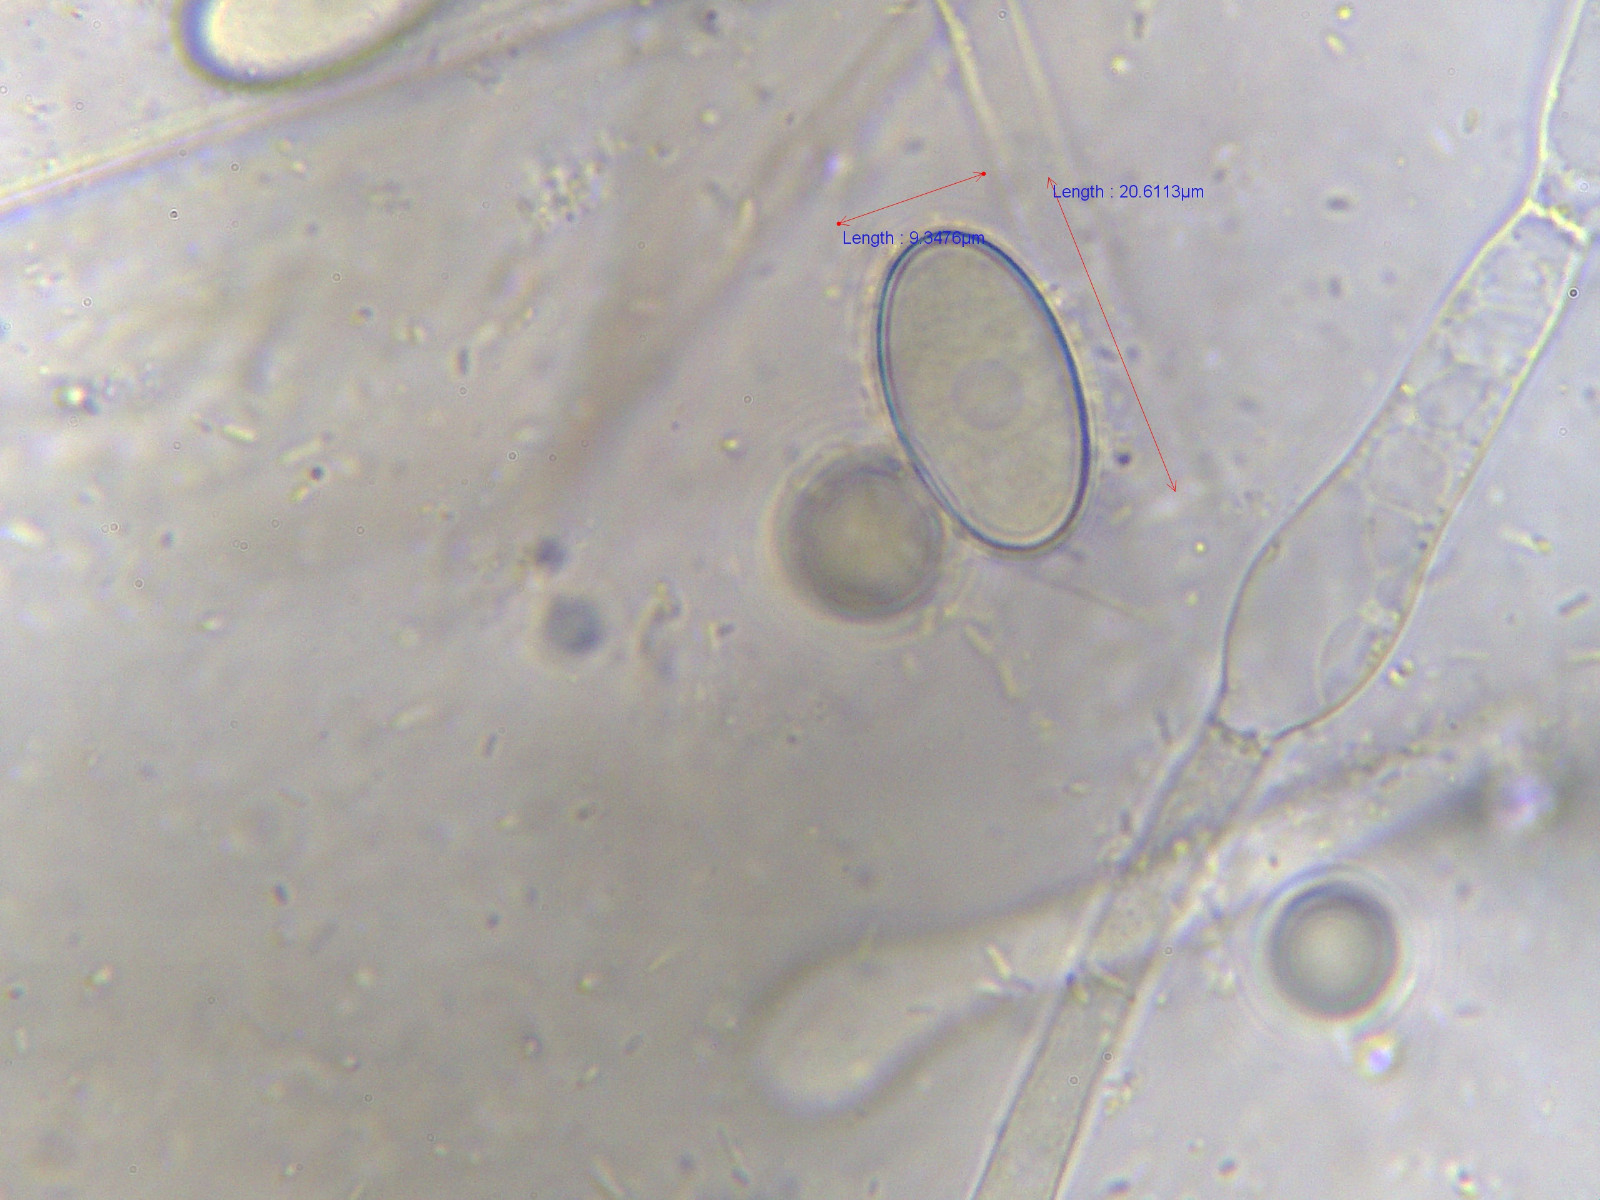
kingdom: Fungi
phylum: Ascomycota
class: Pezizomycetes
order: Pezizales
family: Pezizaceae
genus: Peziza
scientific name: Peziza vesiculosa
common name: blære-bægersvamp
